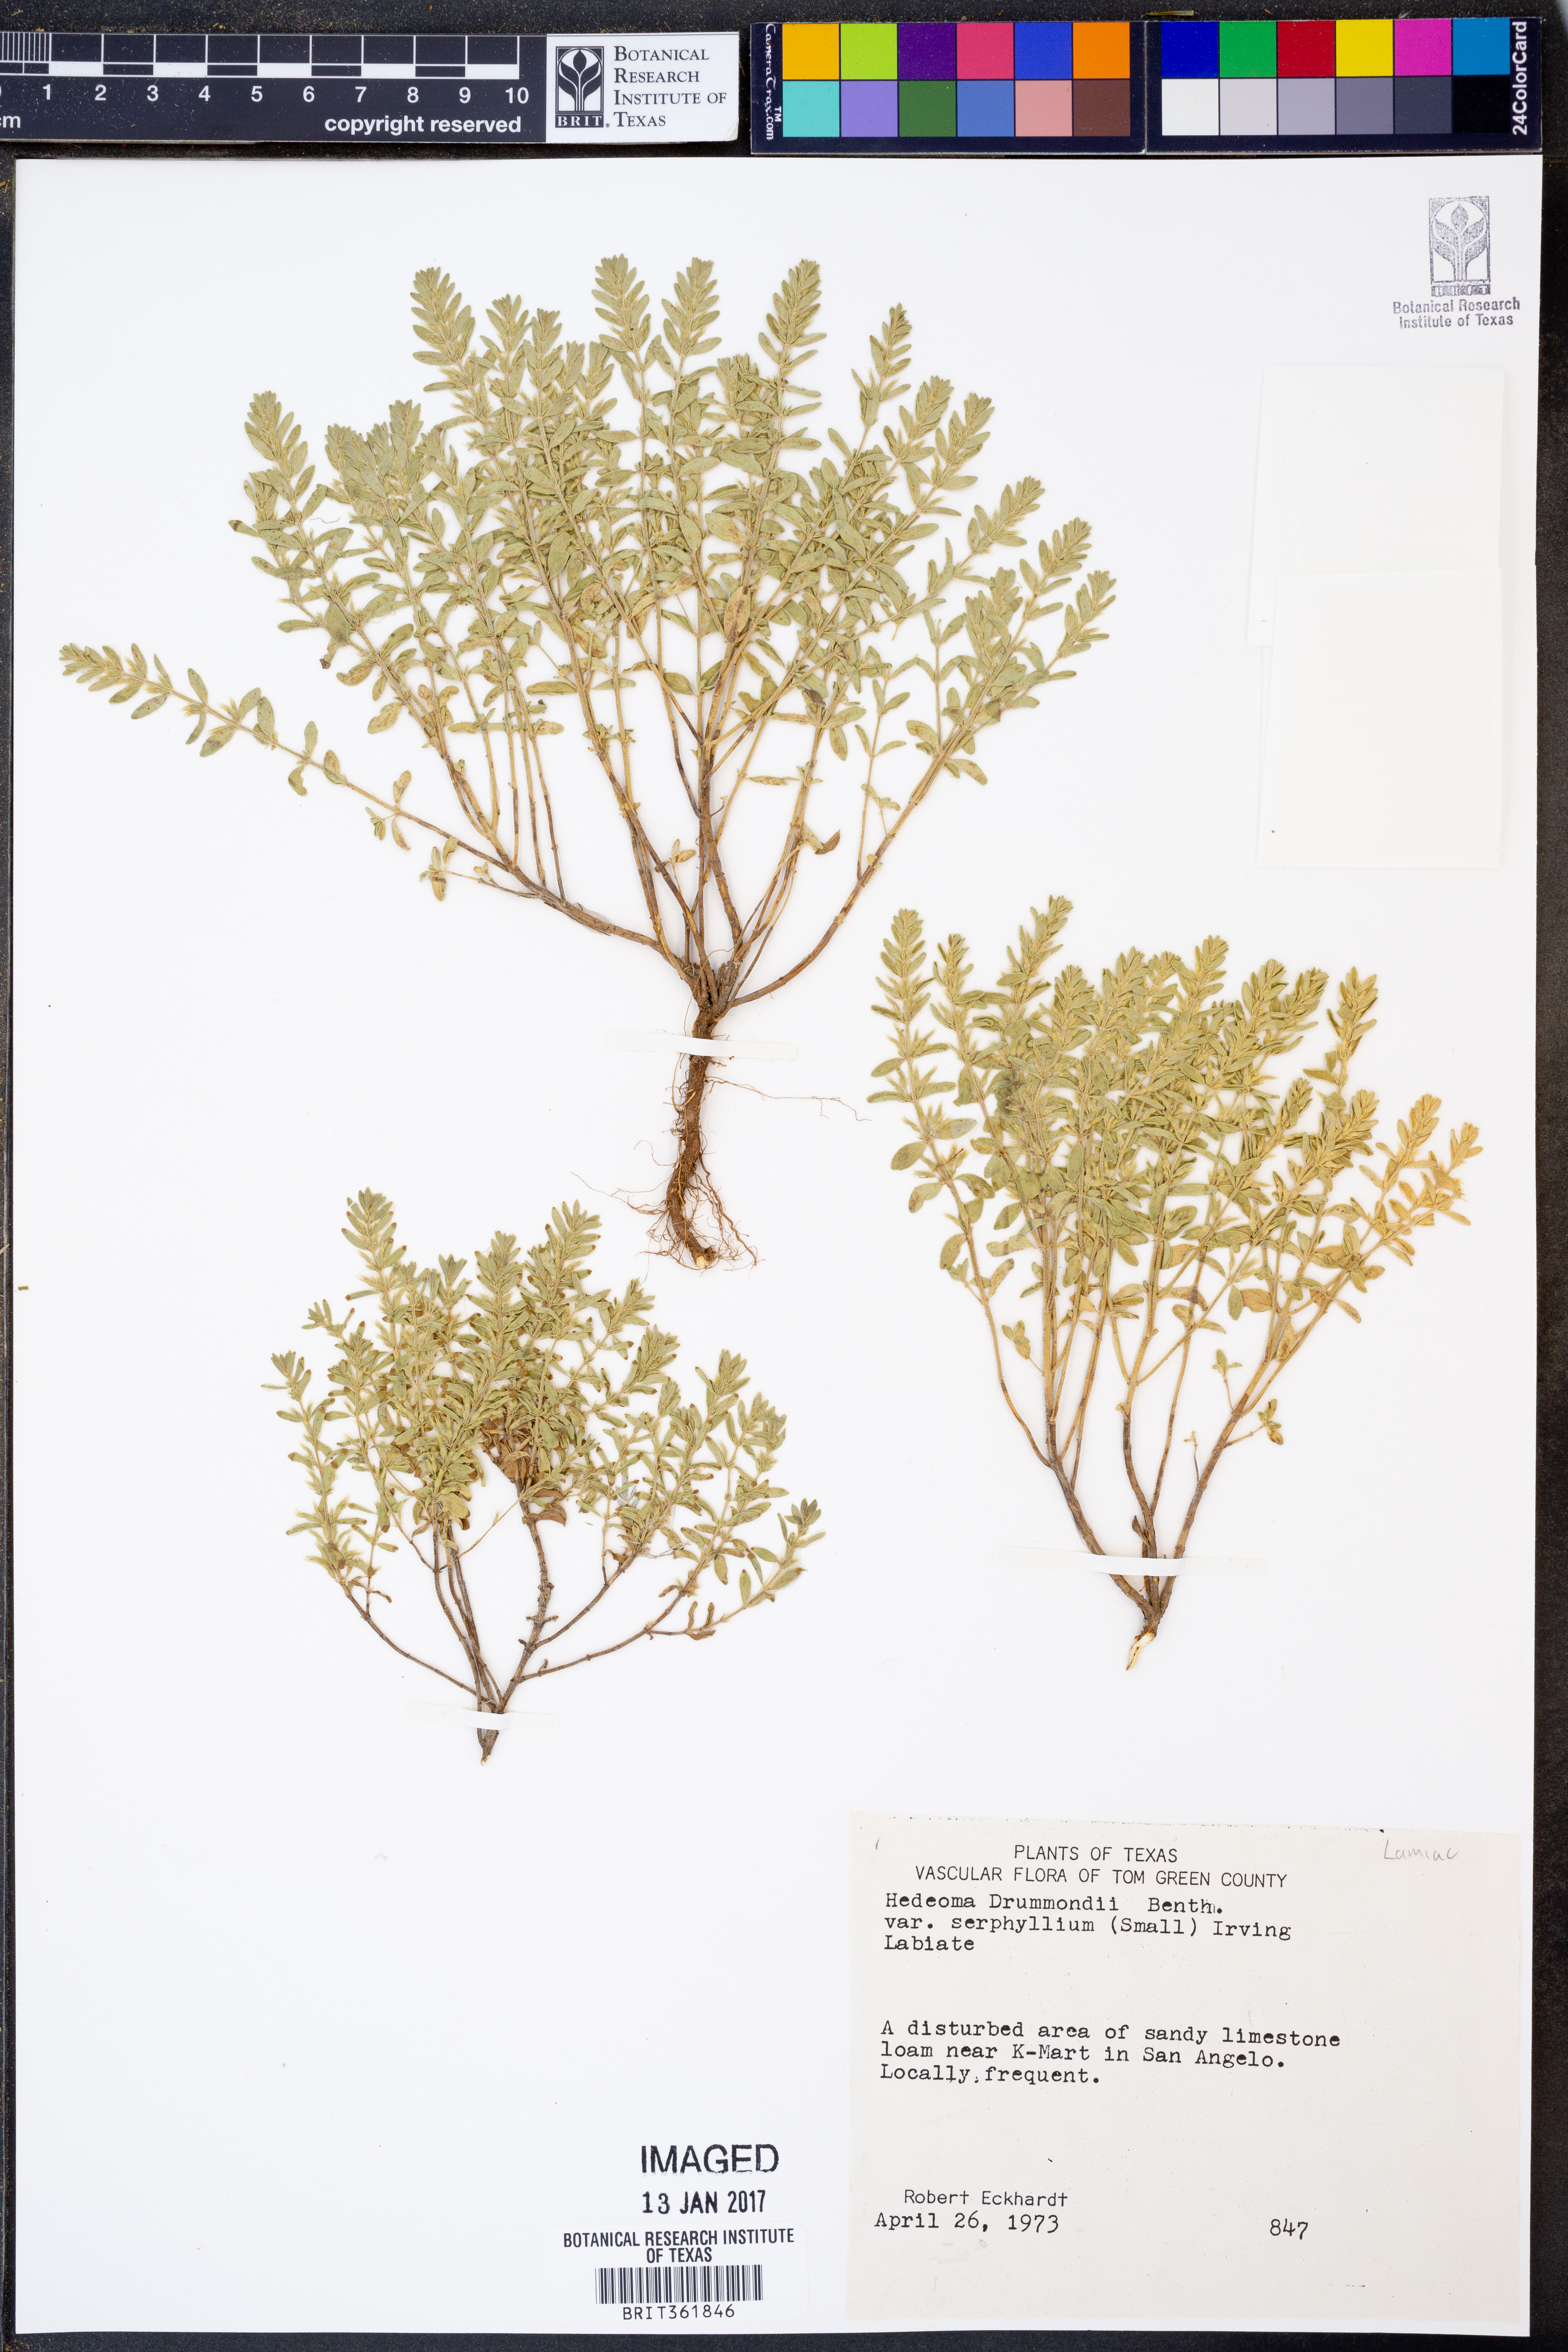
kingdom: Plantae
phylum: Tracheophyta
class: Magnoliopsida
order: Lamiales
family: Lamiaceae
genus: Hedeoma
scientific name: Hedeoma drummondii
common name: New mexico pennyroyal
